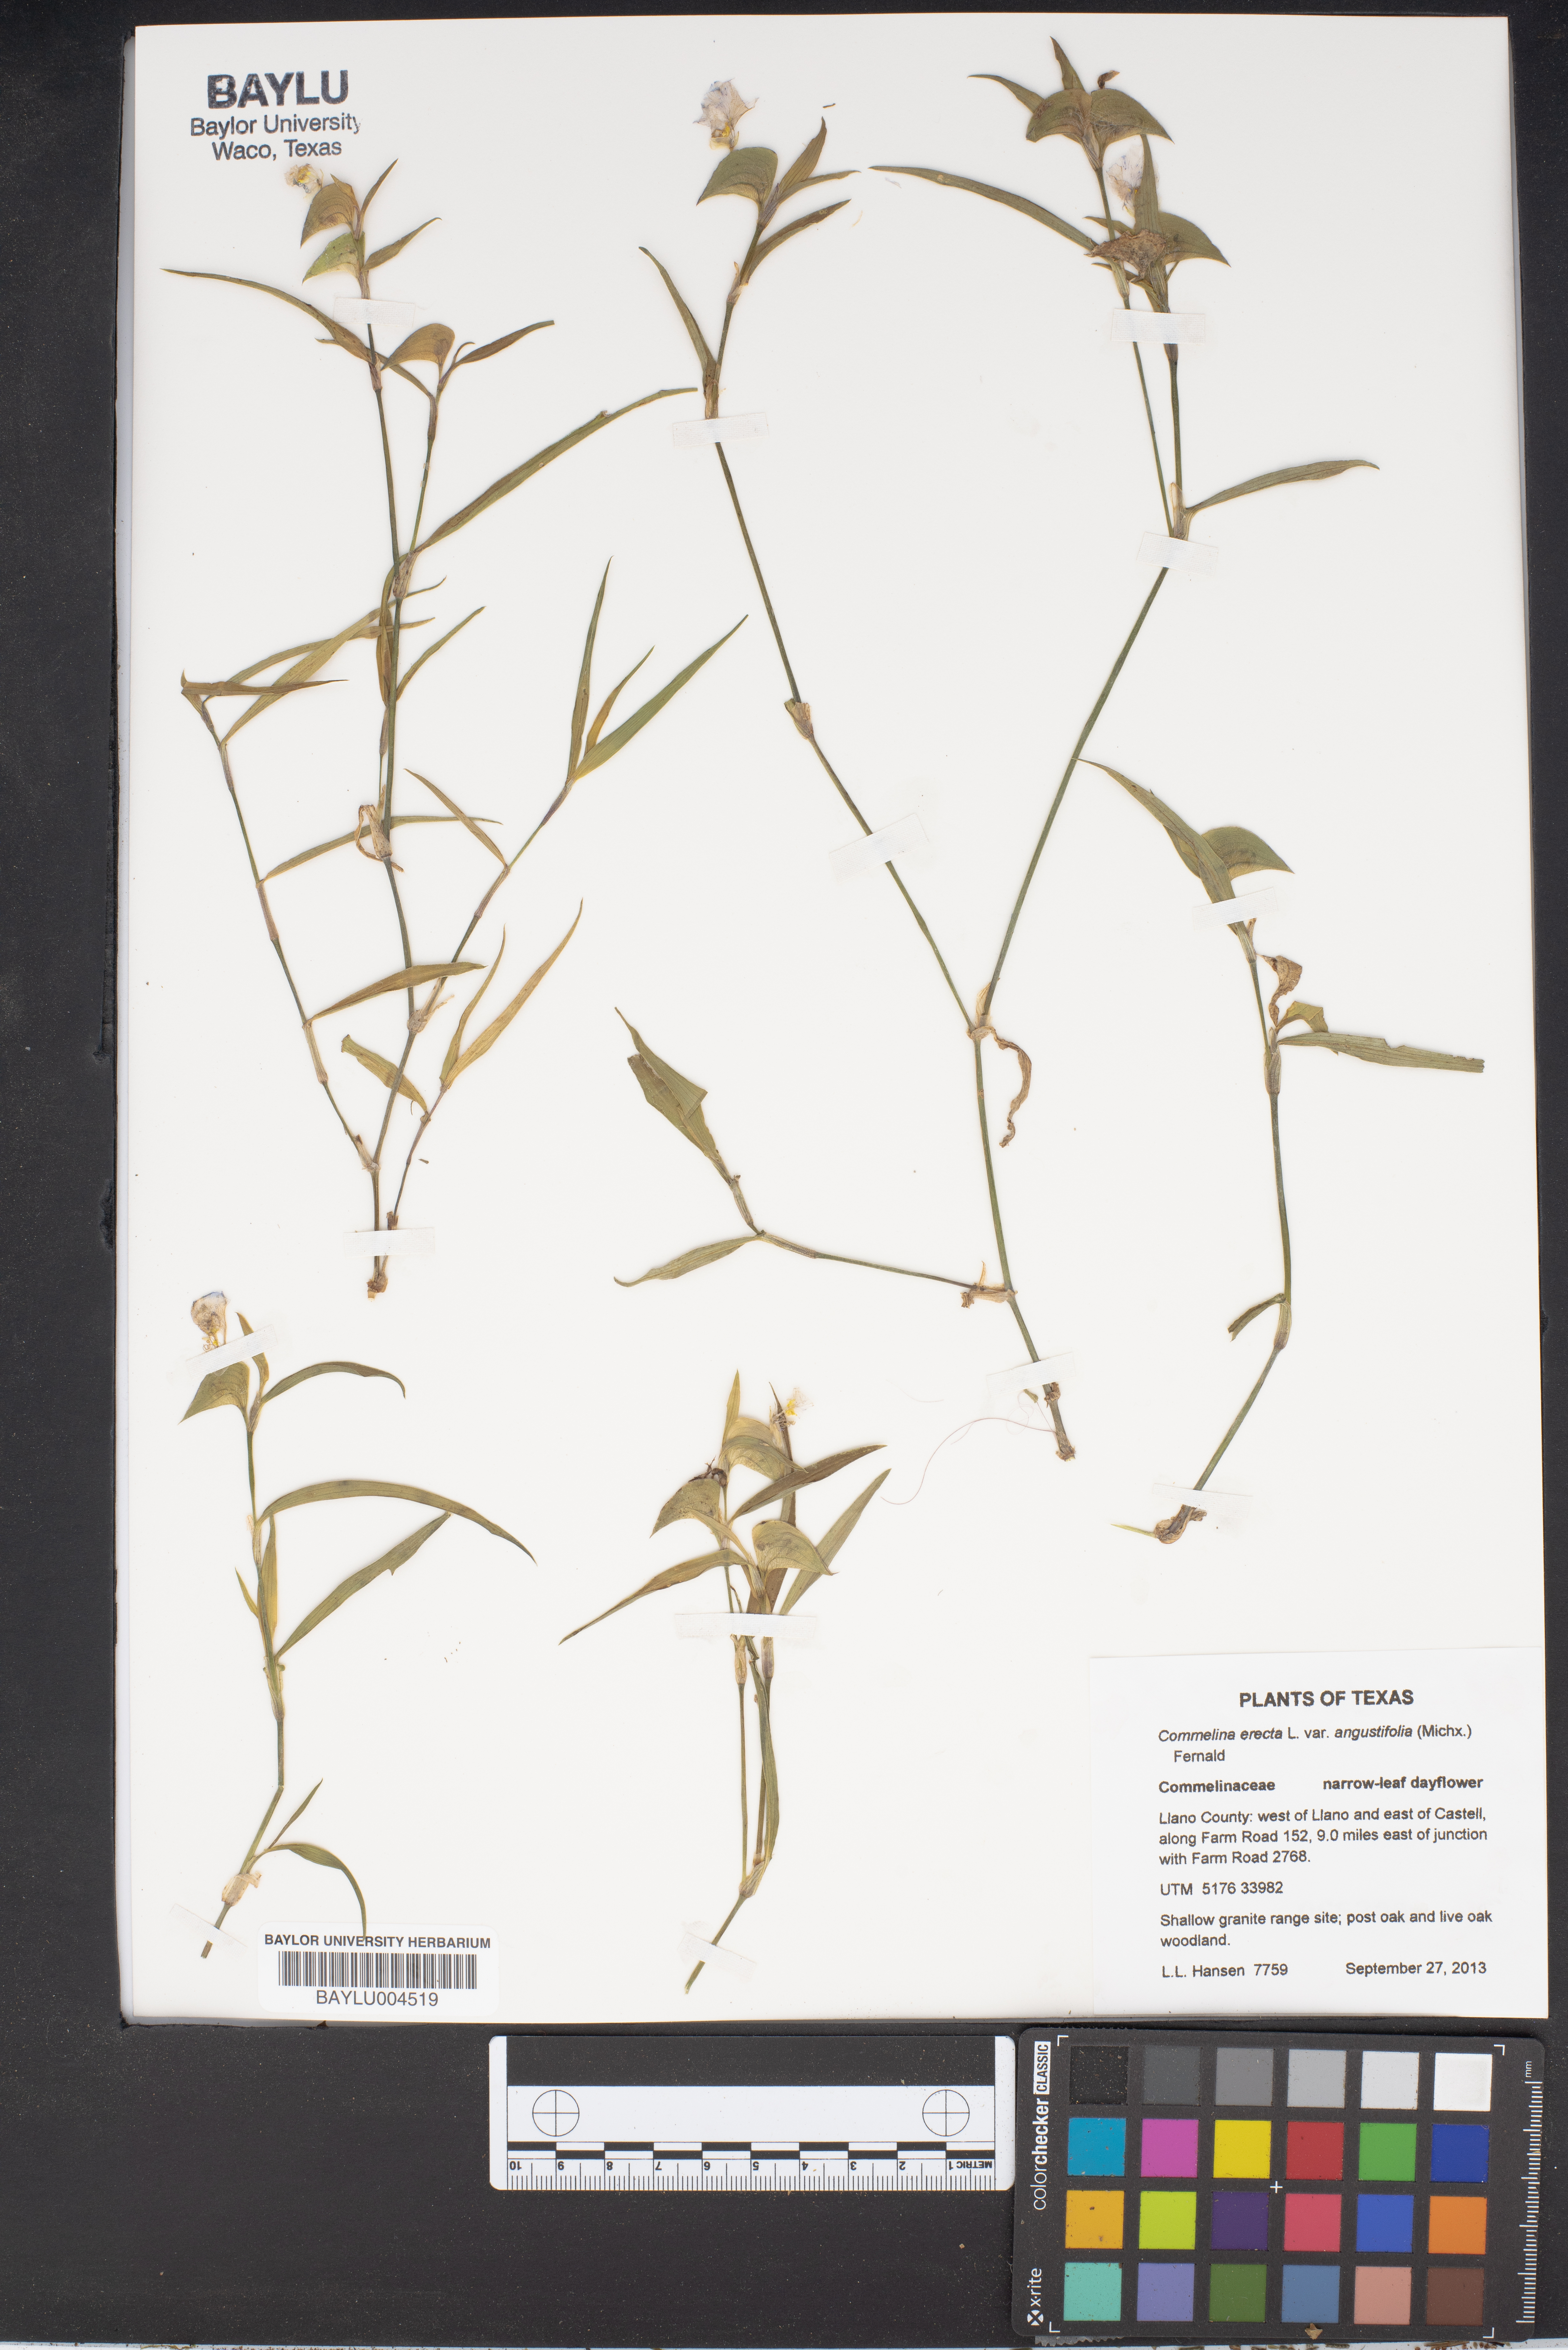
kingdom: Plantae
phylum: Tracheophyta
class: Liliopsida
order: Commelinales
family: Commelinaceae
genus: Commelina
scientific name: Commelina erecta
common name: Blousel blommetjie
